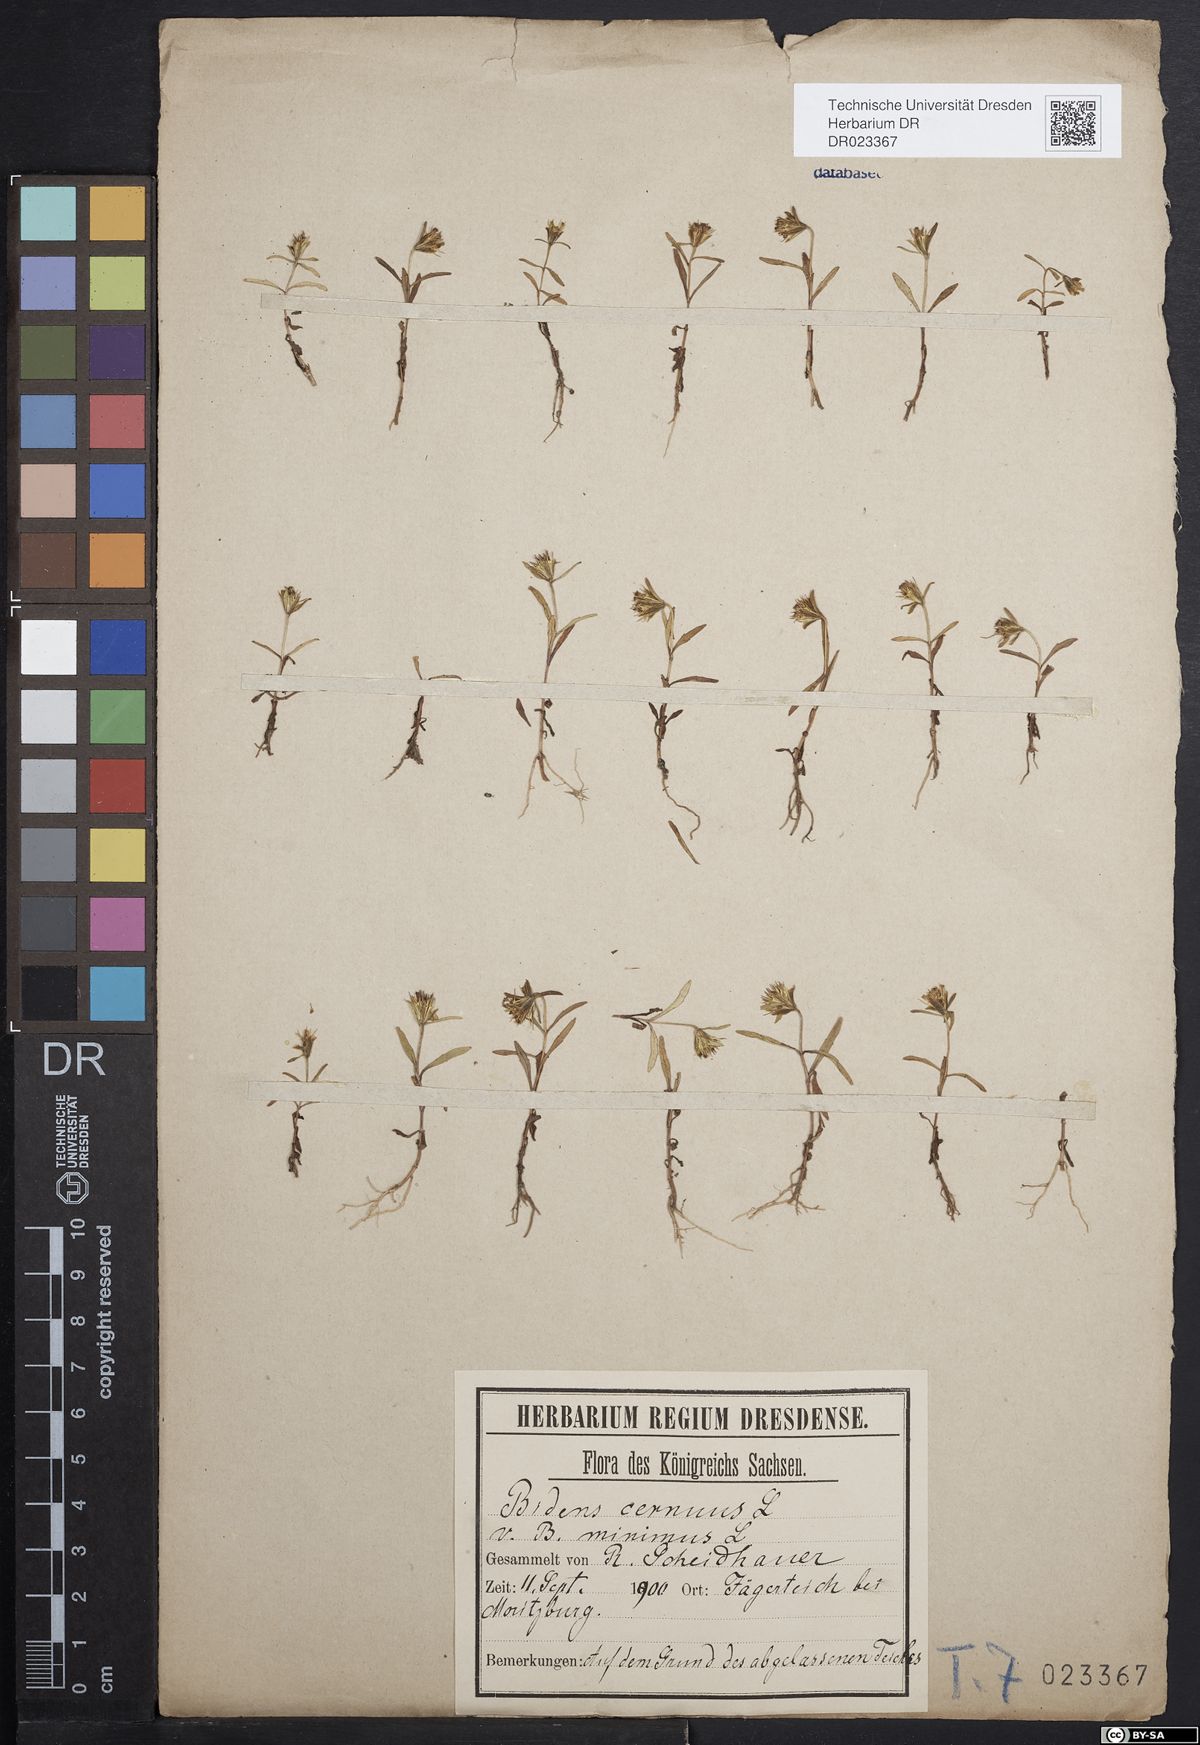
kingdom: Plantae
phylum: Tracheophyta
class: Magnoliopsida
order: Asterales
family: Asteraceae
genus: Bidens
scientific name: Bidens cernua
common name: Nodding bur-marigold
